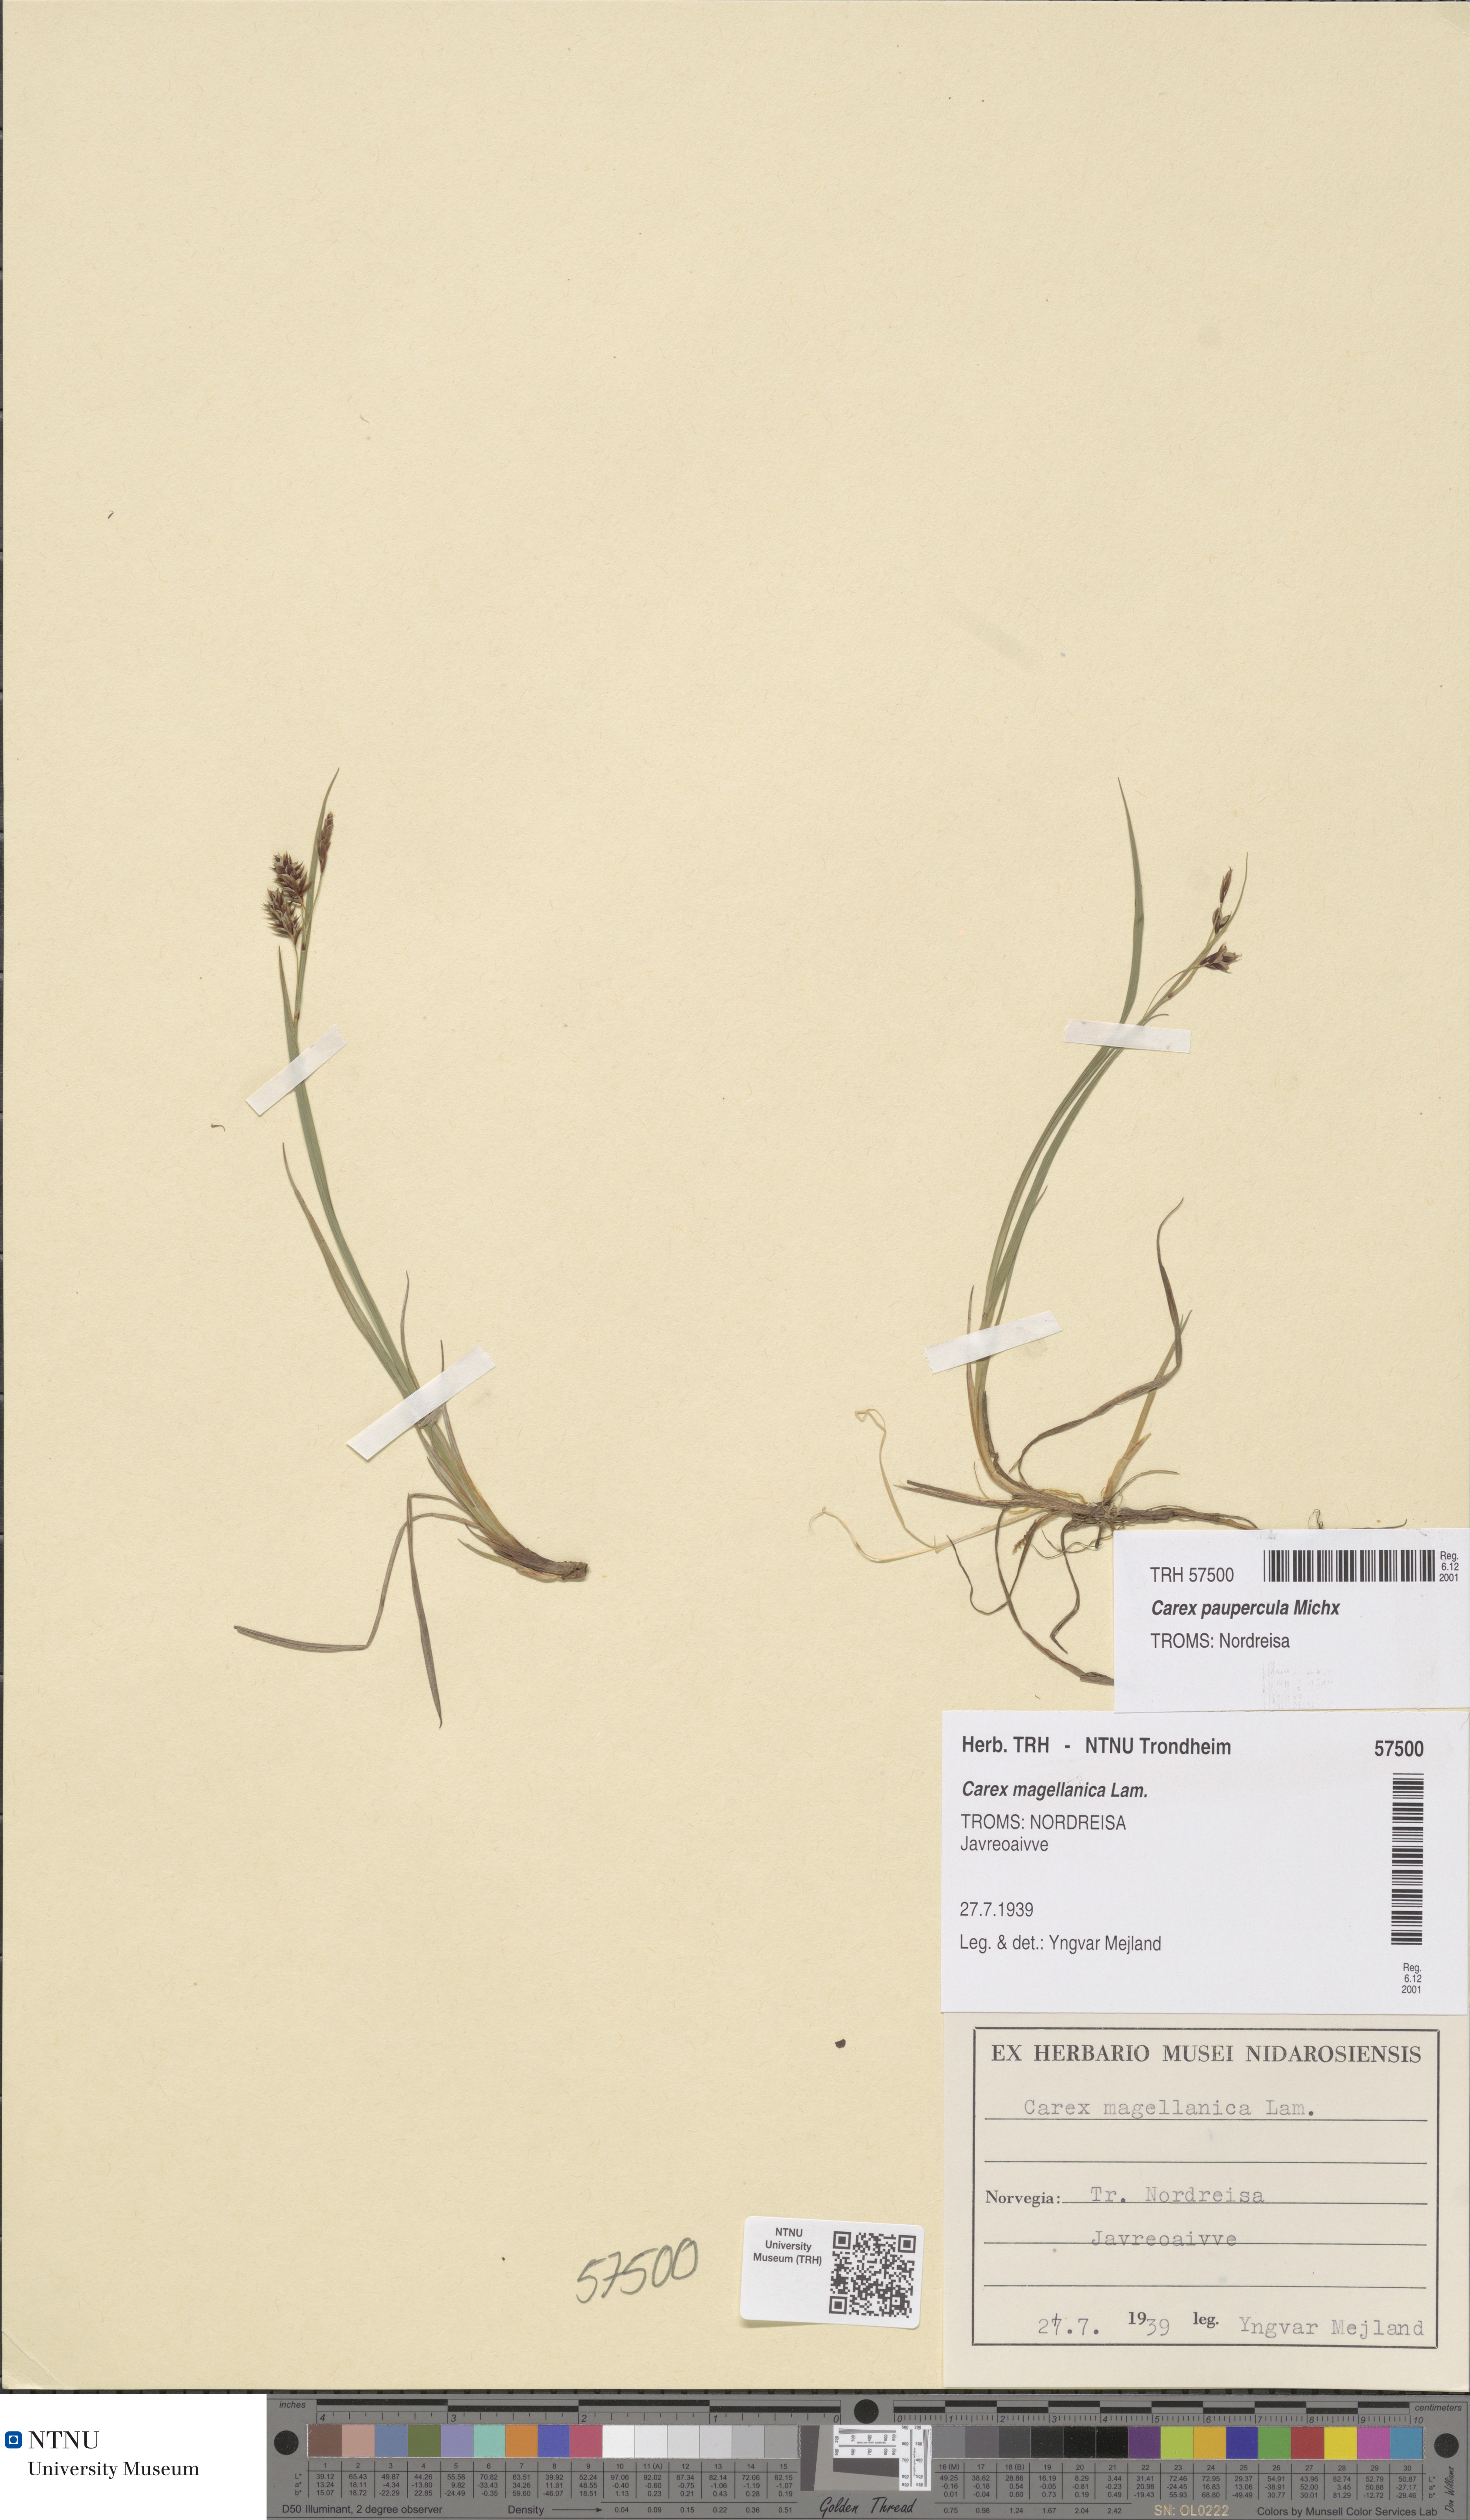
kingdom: Plantae
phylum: Tracheophyta
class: Liliopsida
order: Poales
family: Cyperaceae
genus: Carex
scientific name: Carex magellanica
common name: Bog sedge
